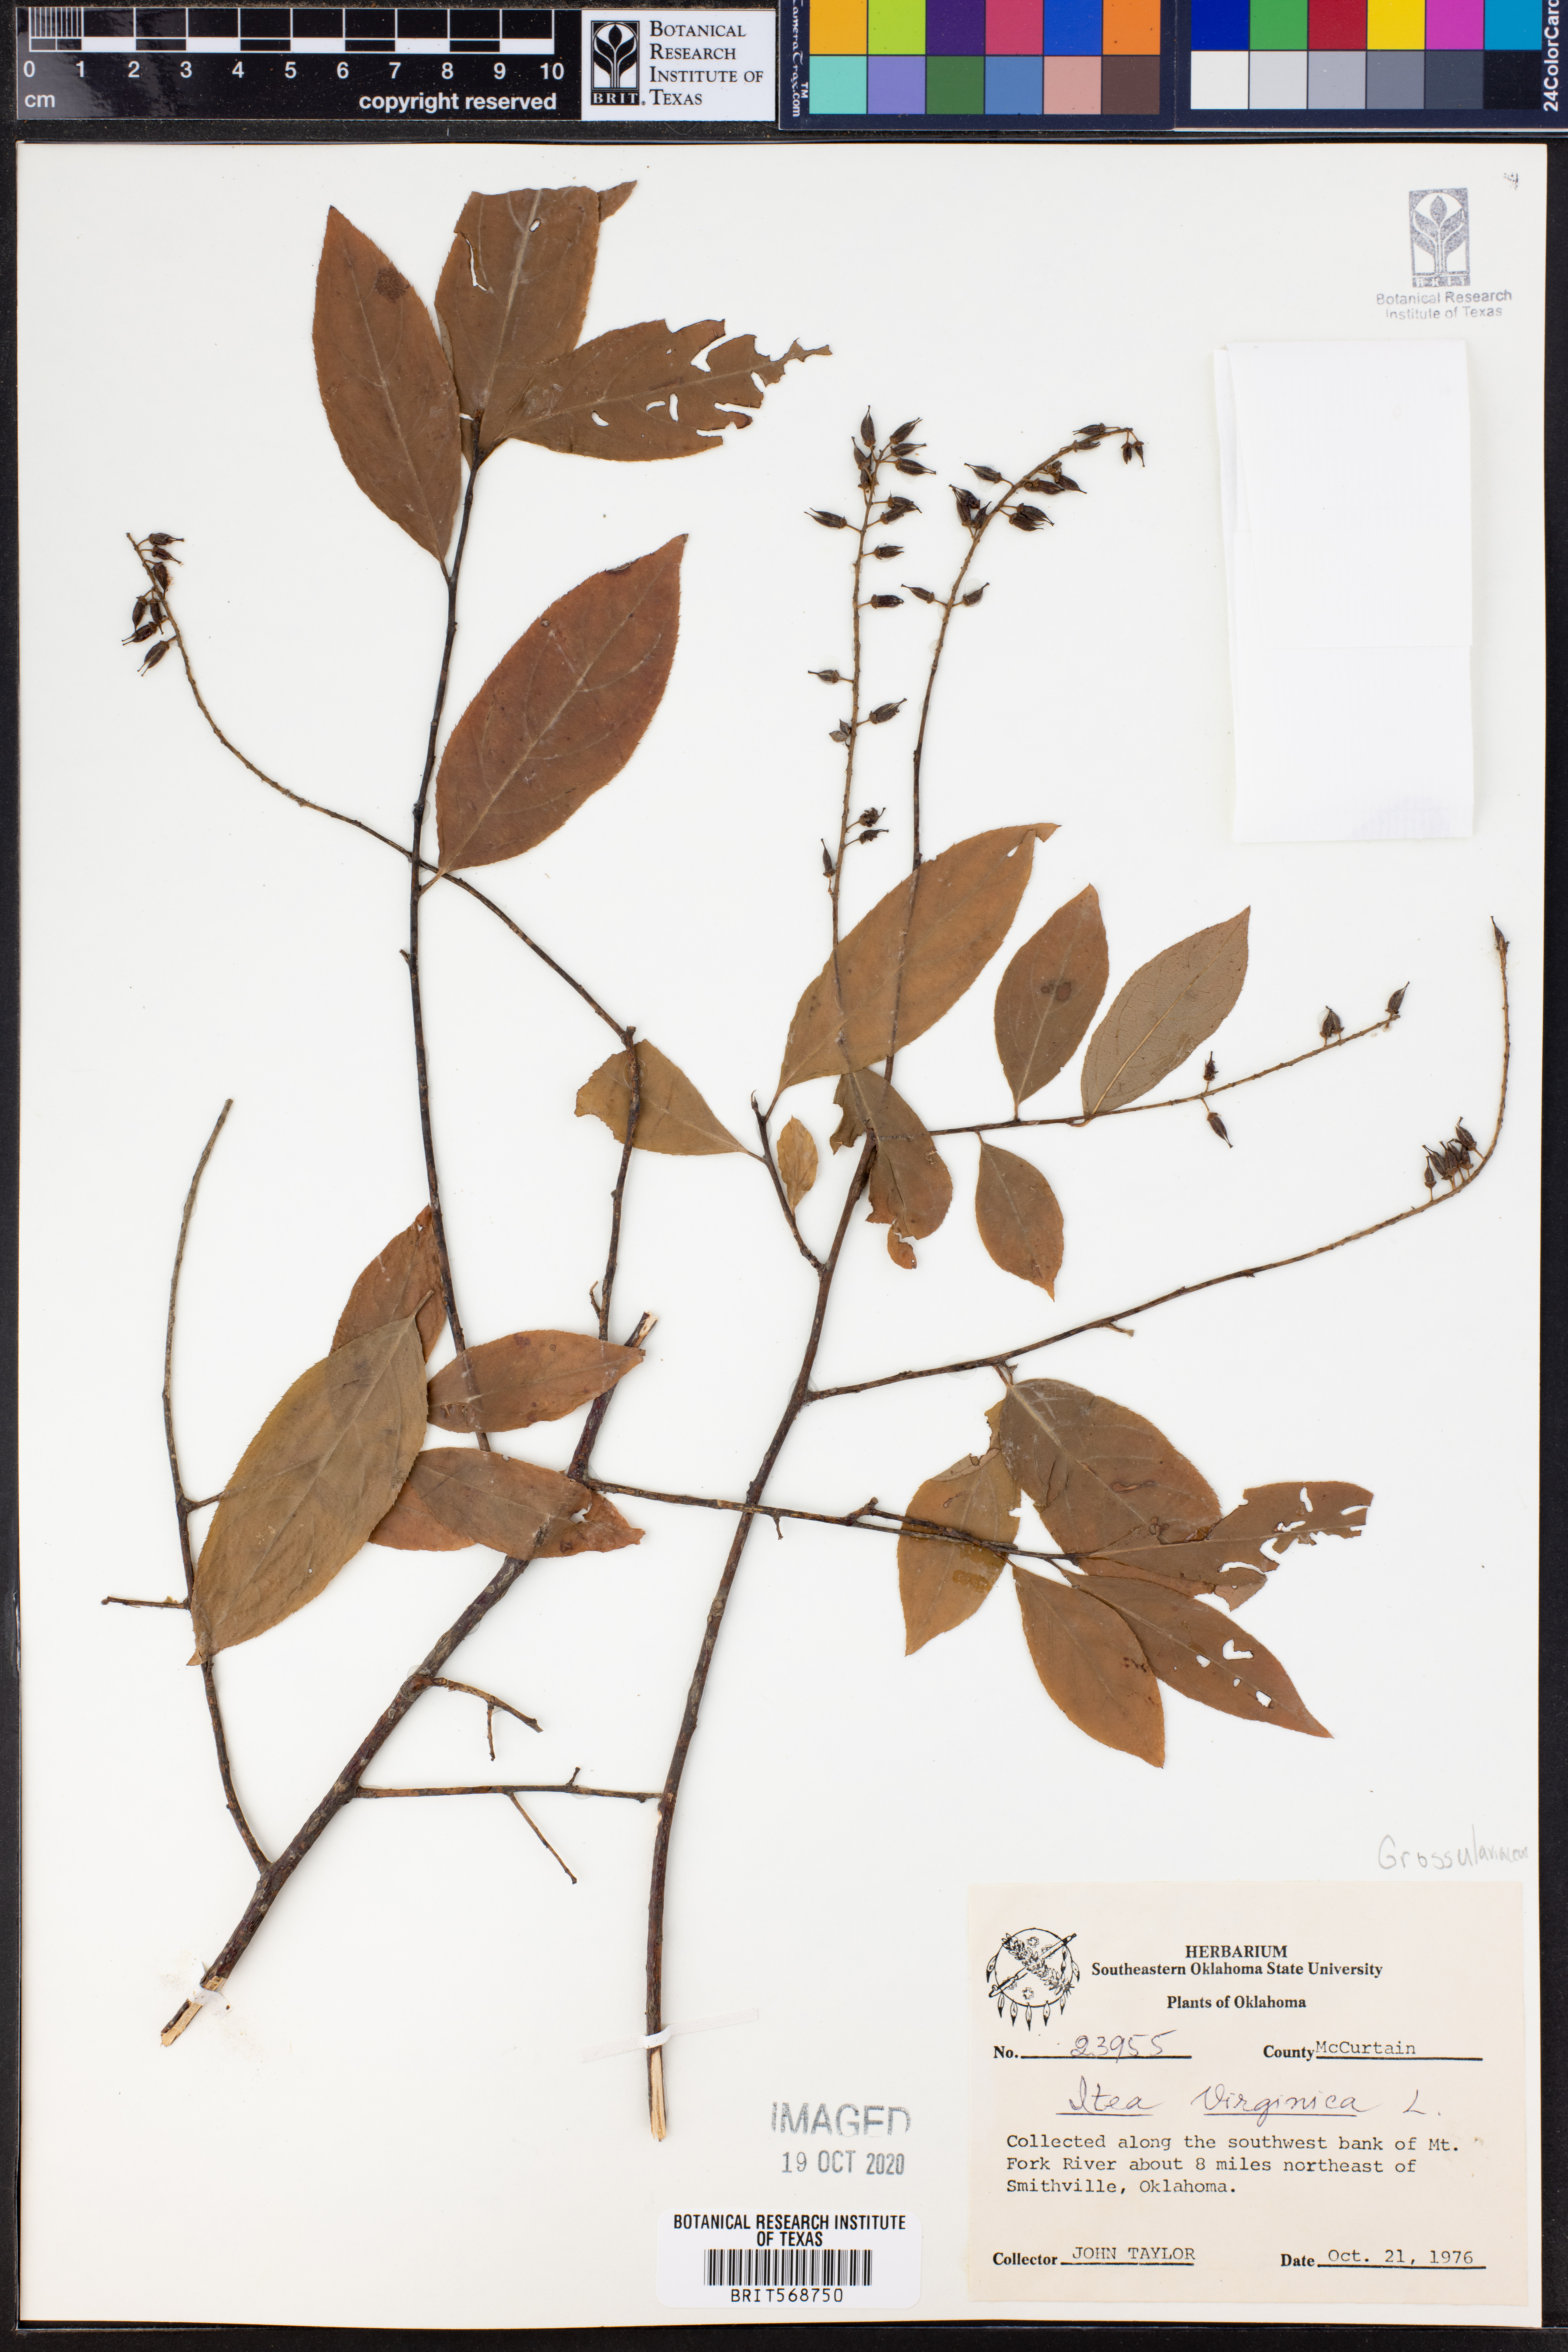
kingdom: Plantae
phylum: Tracheophyta
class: Magnoliopsida
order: Saxifragales
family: Iteaceae
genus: Itea
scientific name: Itea virginica
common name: Sweetspire
